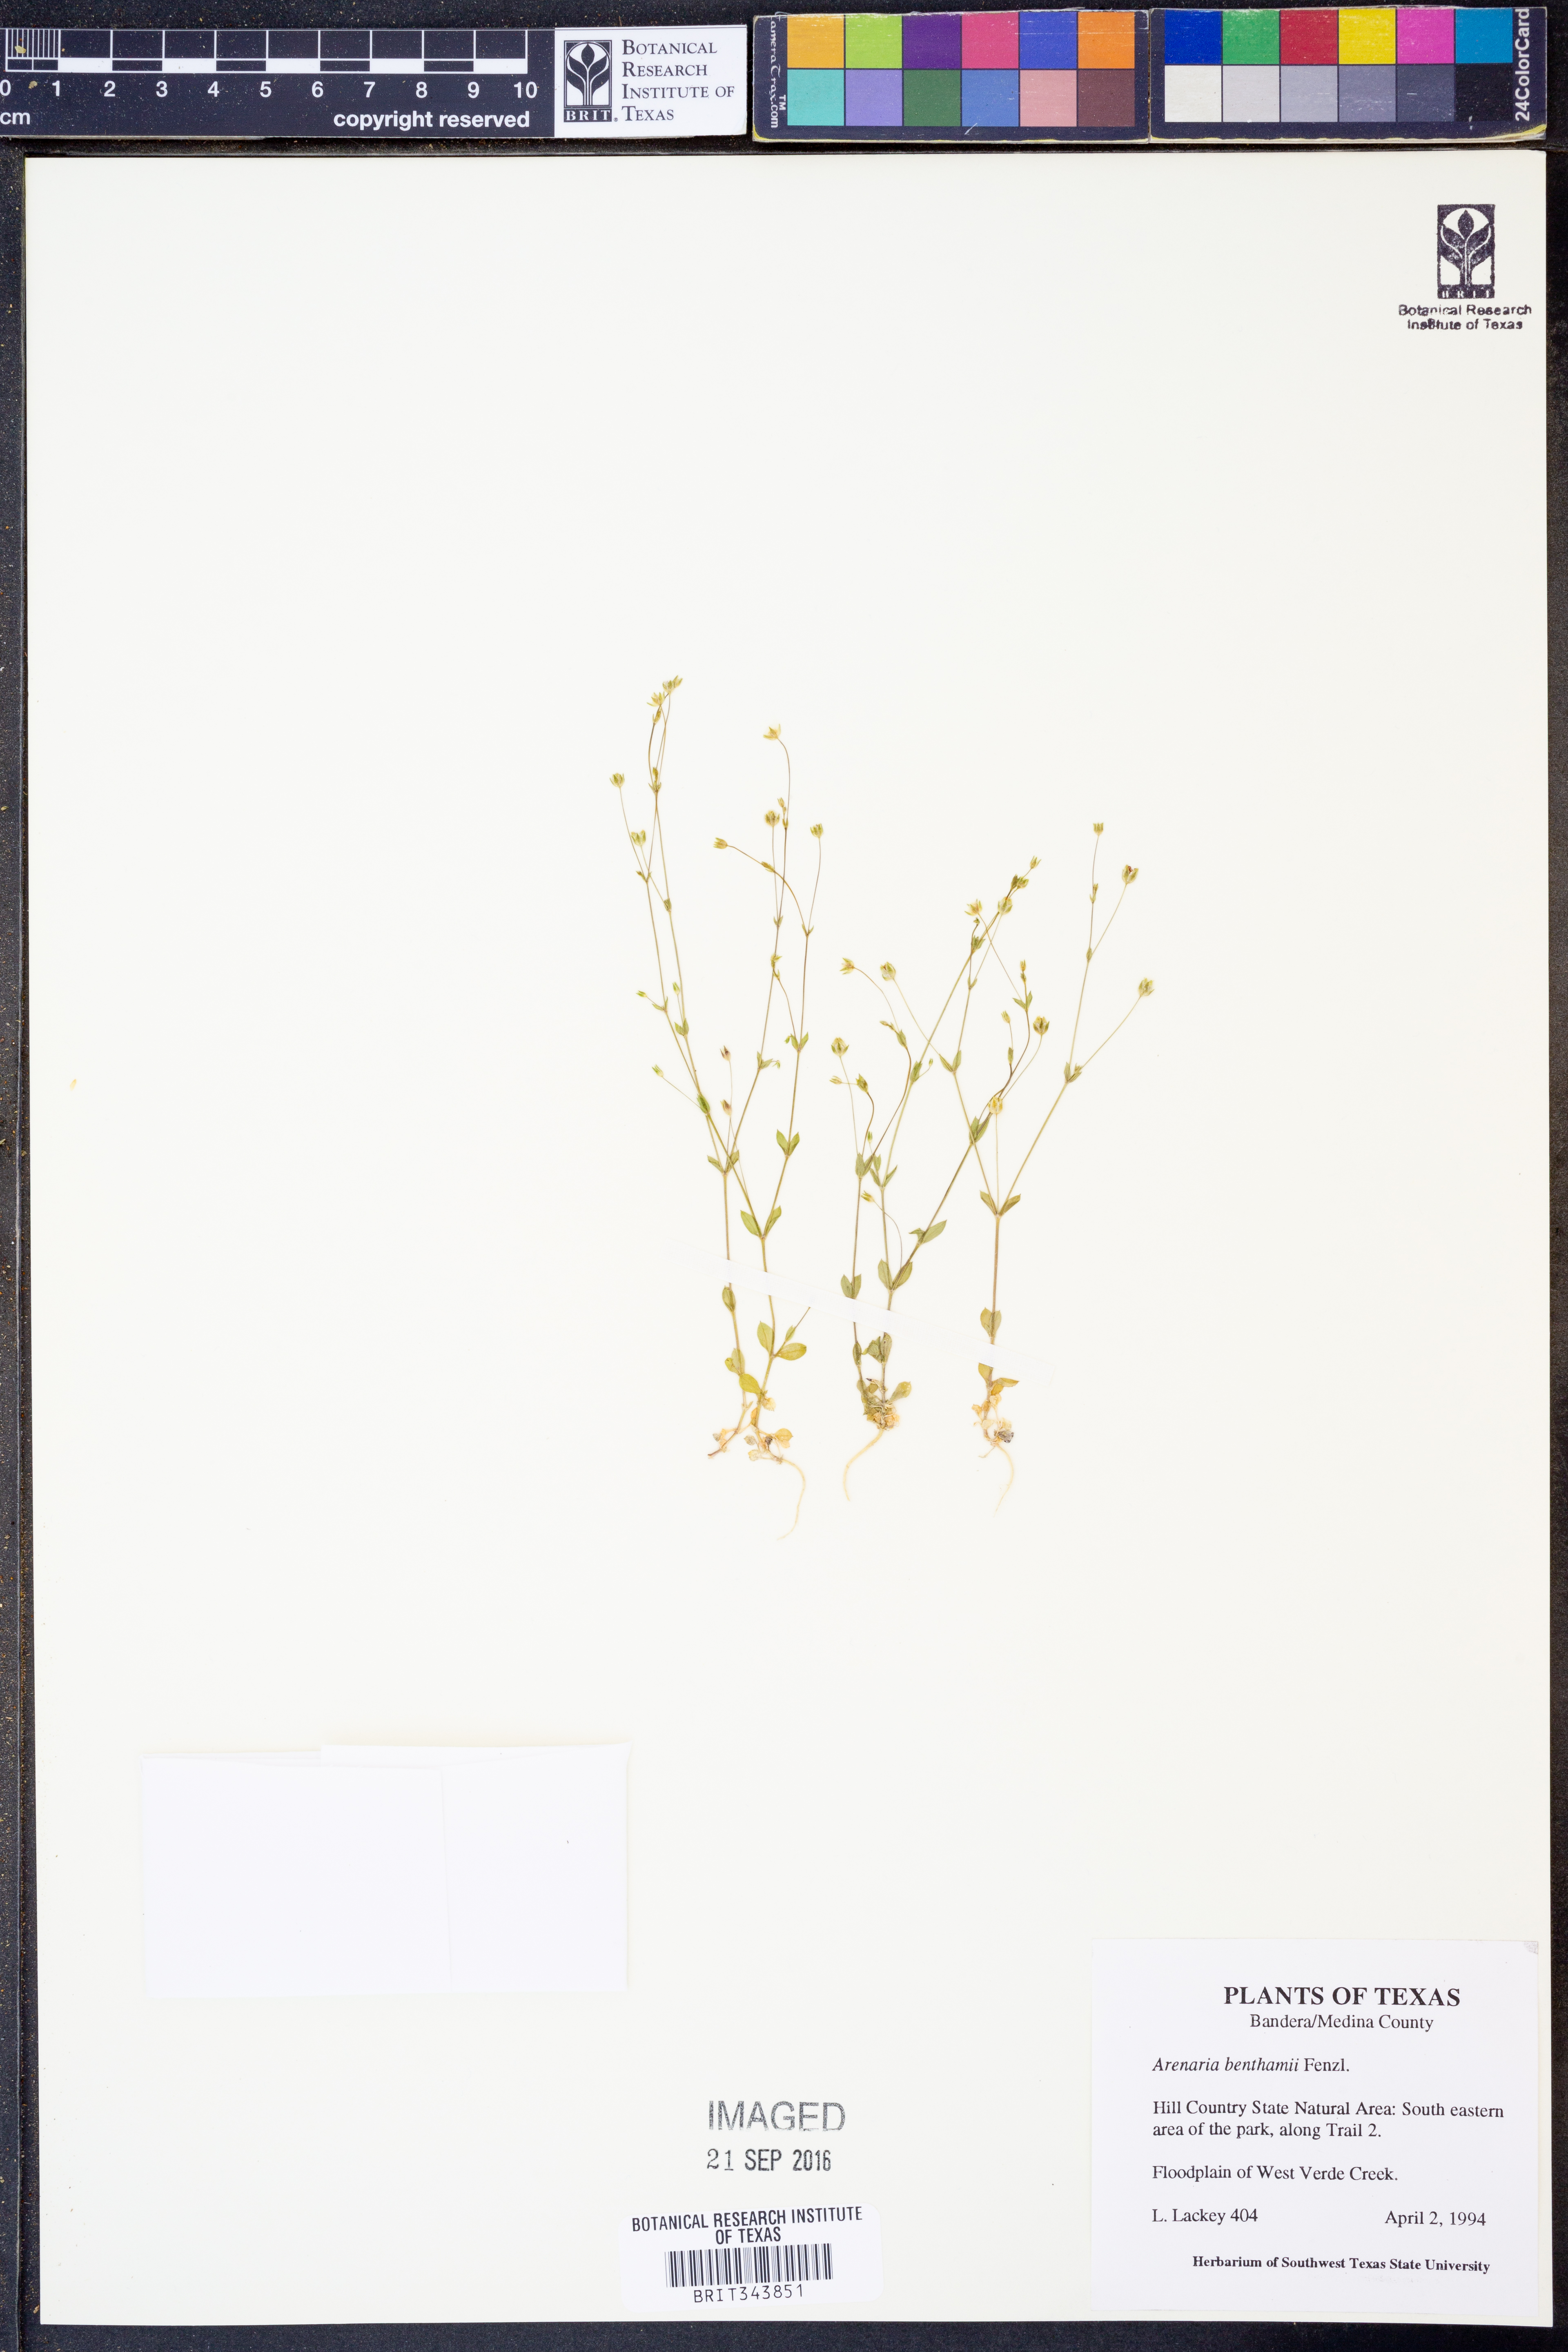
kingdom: Plantae
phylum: Tracheophyta
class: Magnoliopsida
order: Caryophyllales
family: Caryophyllaceae
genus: Arenaria
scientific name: Arenaria benthamii
